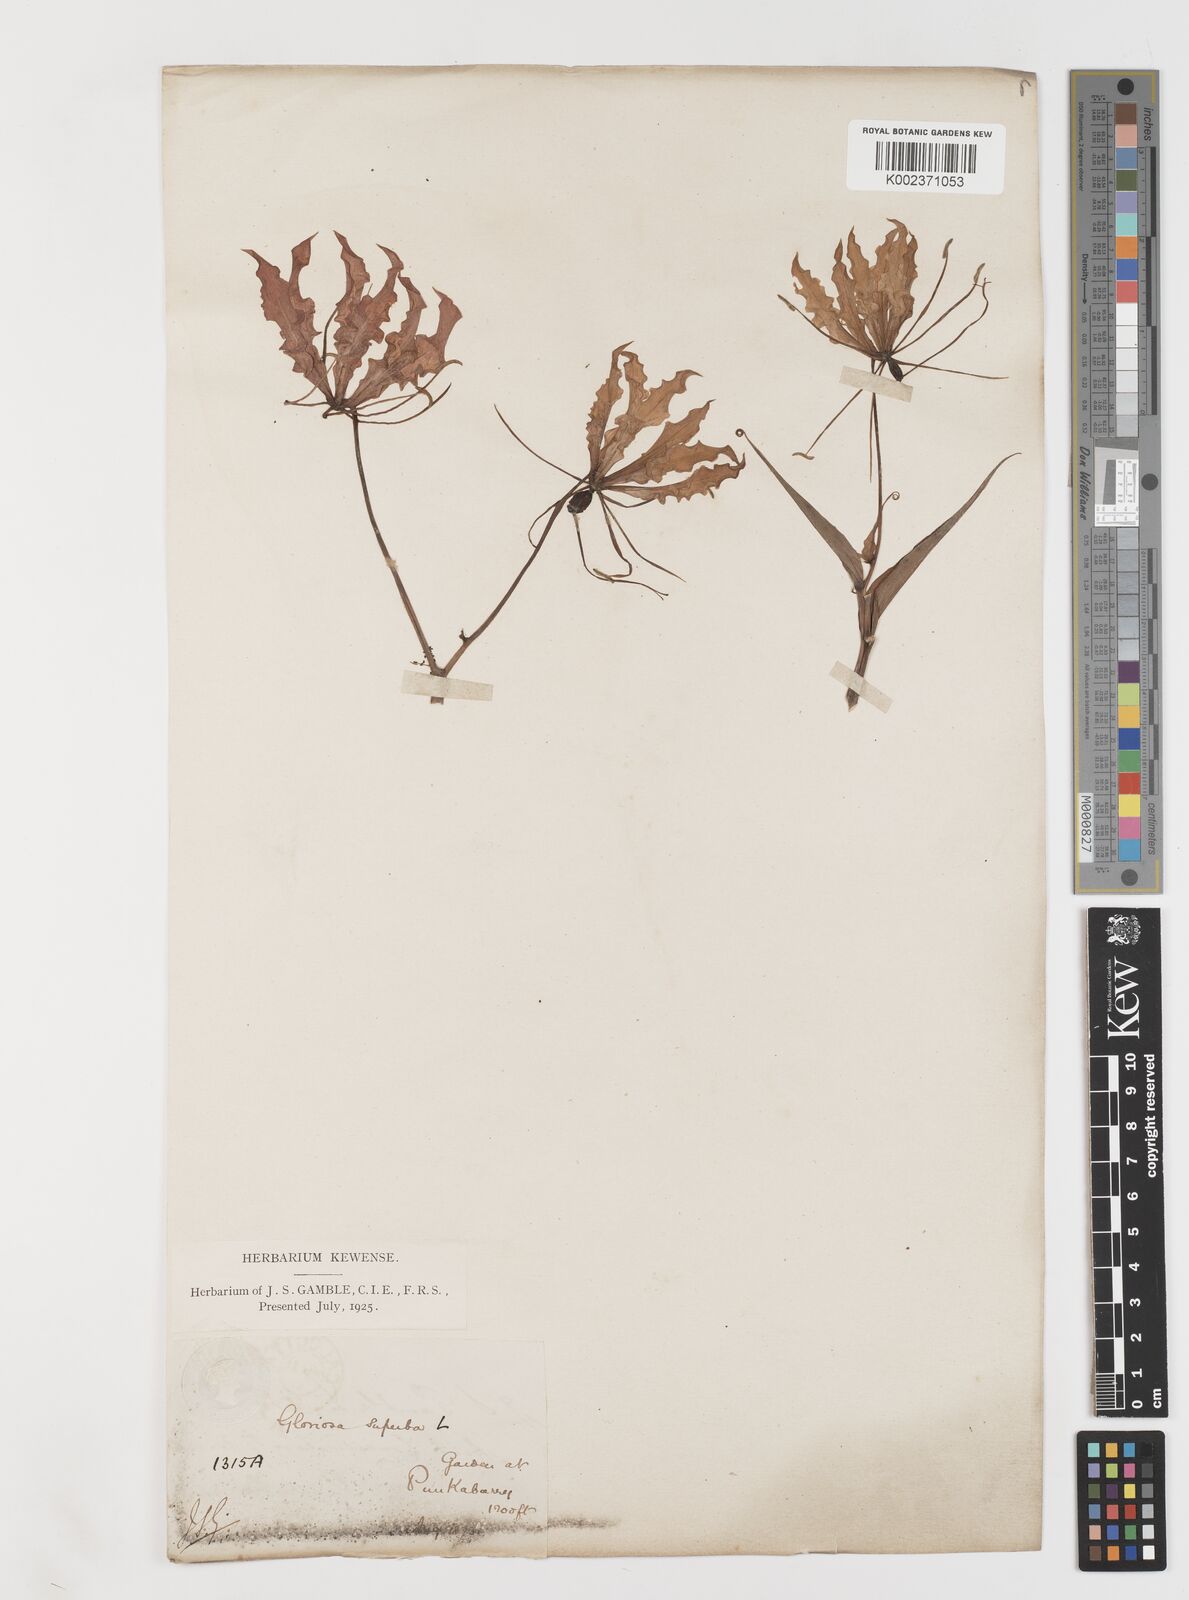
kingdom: Plantae
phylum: Tracheophyta
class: Liliopsida
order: Liliales
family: Colchicaceae
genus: Gloriosa
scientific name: Gloriosa
